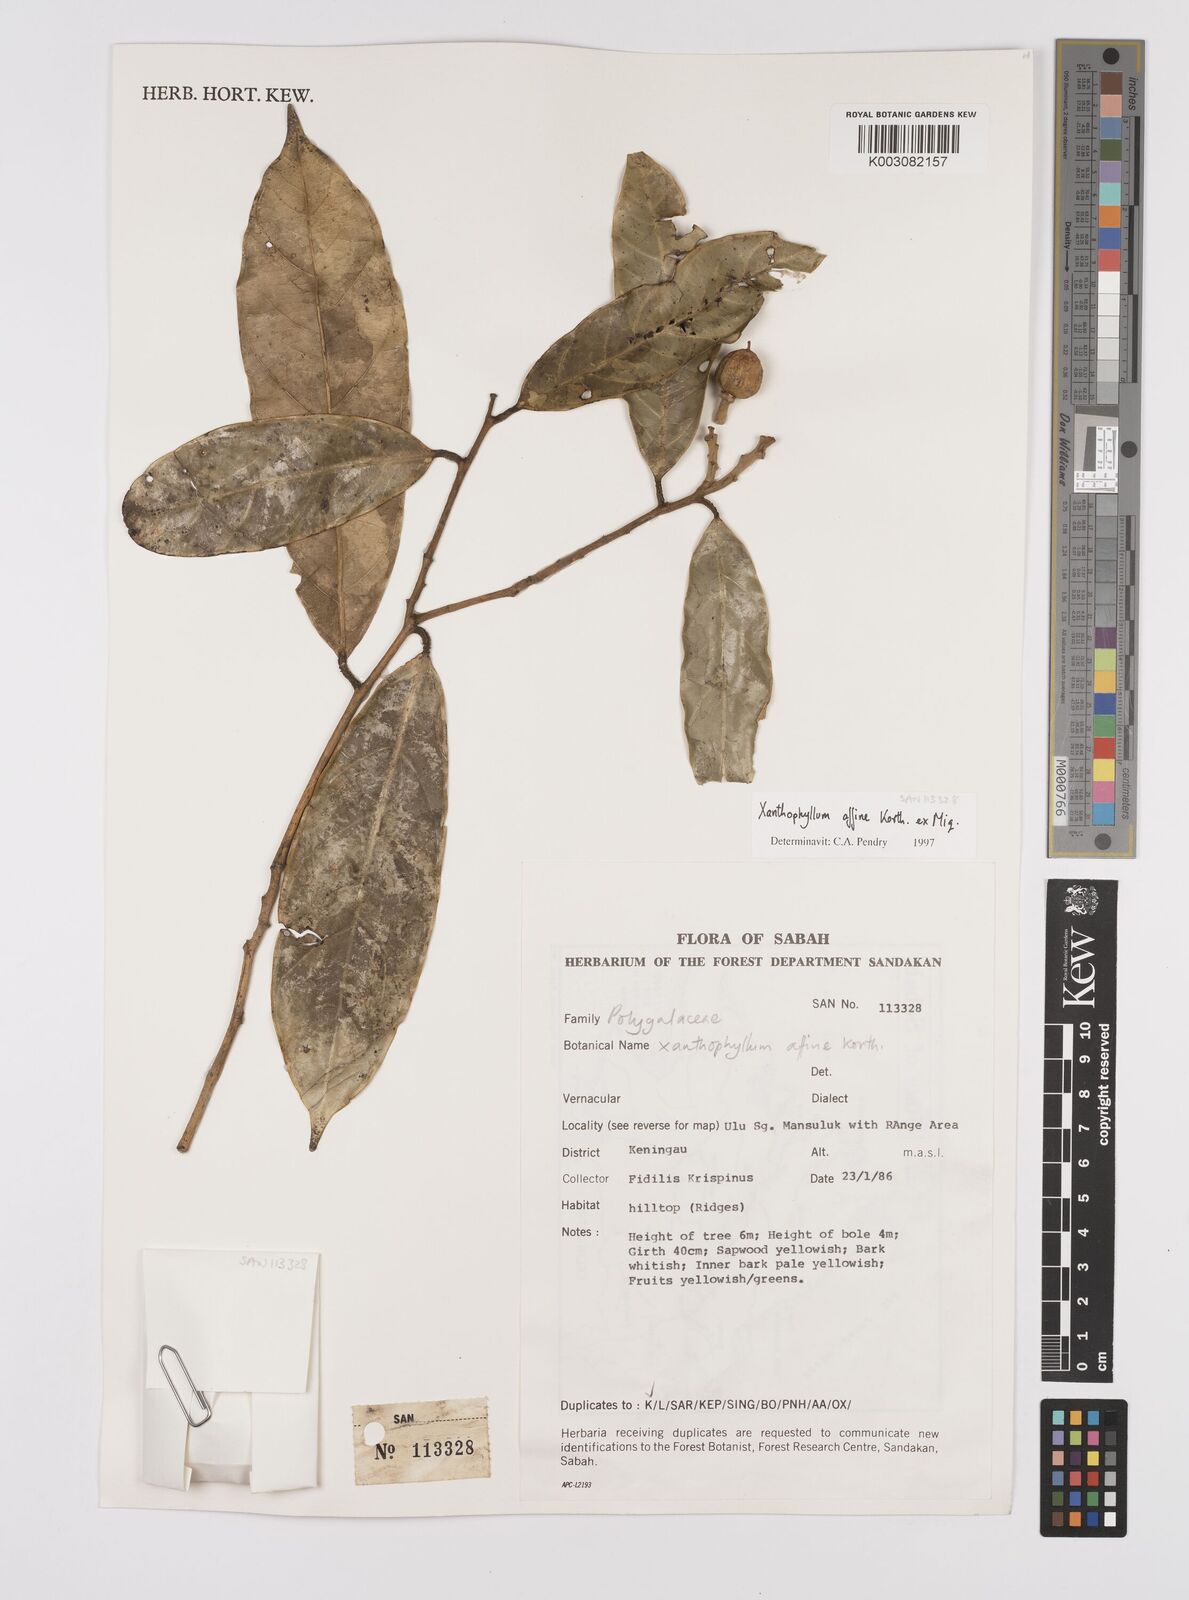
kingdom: Plantae
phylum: Tracheophyta
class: Magnoliopsida
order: Fabales
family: Polygalaceae
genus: Xanthophyllum
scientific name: Xanthophyllum flavescens
